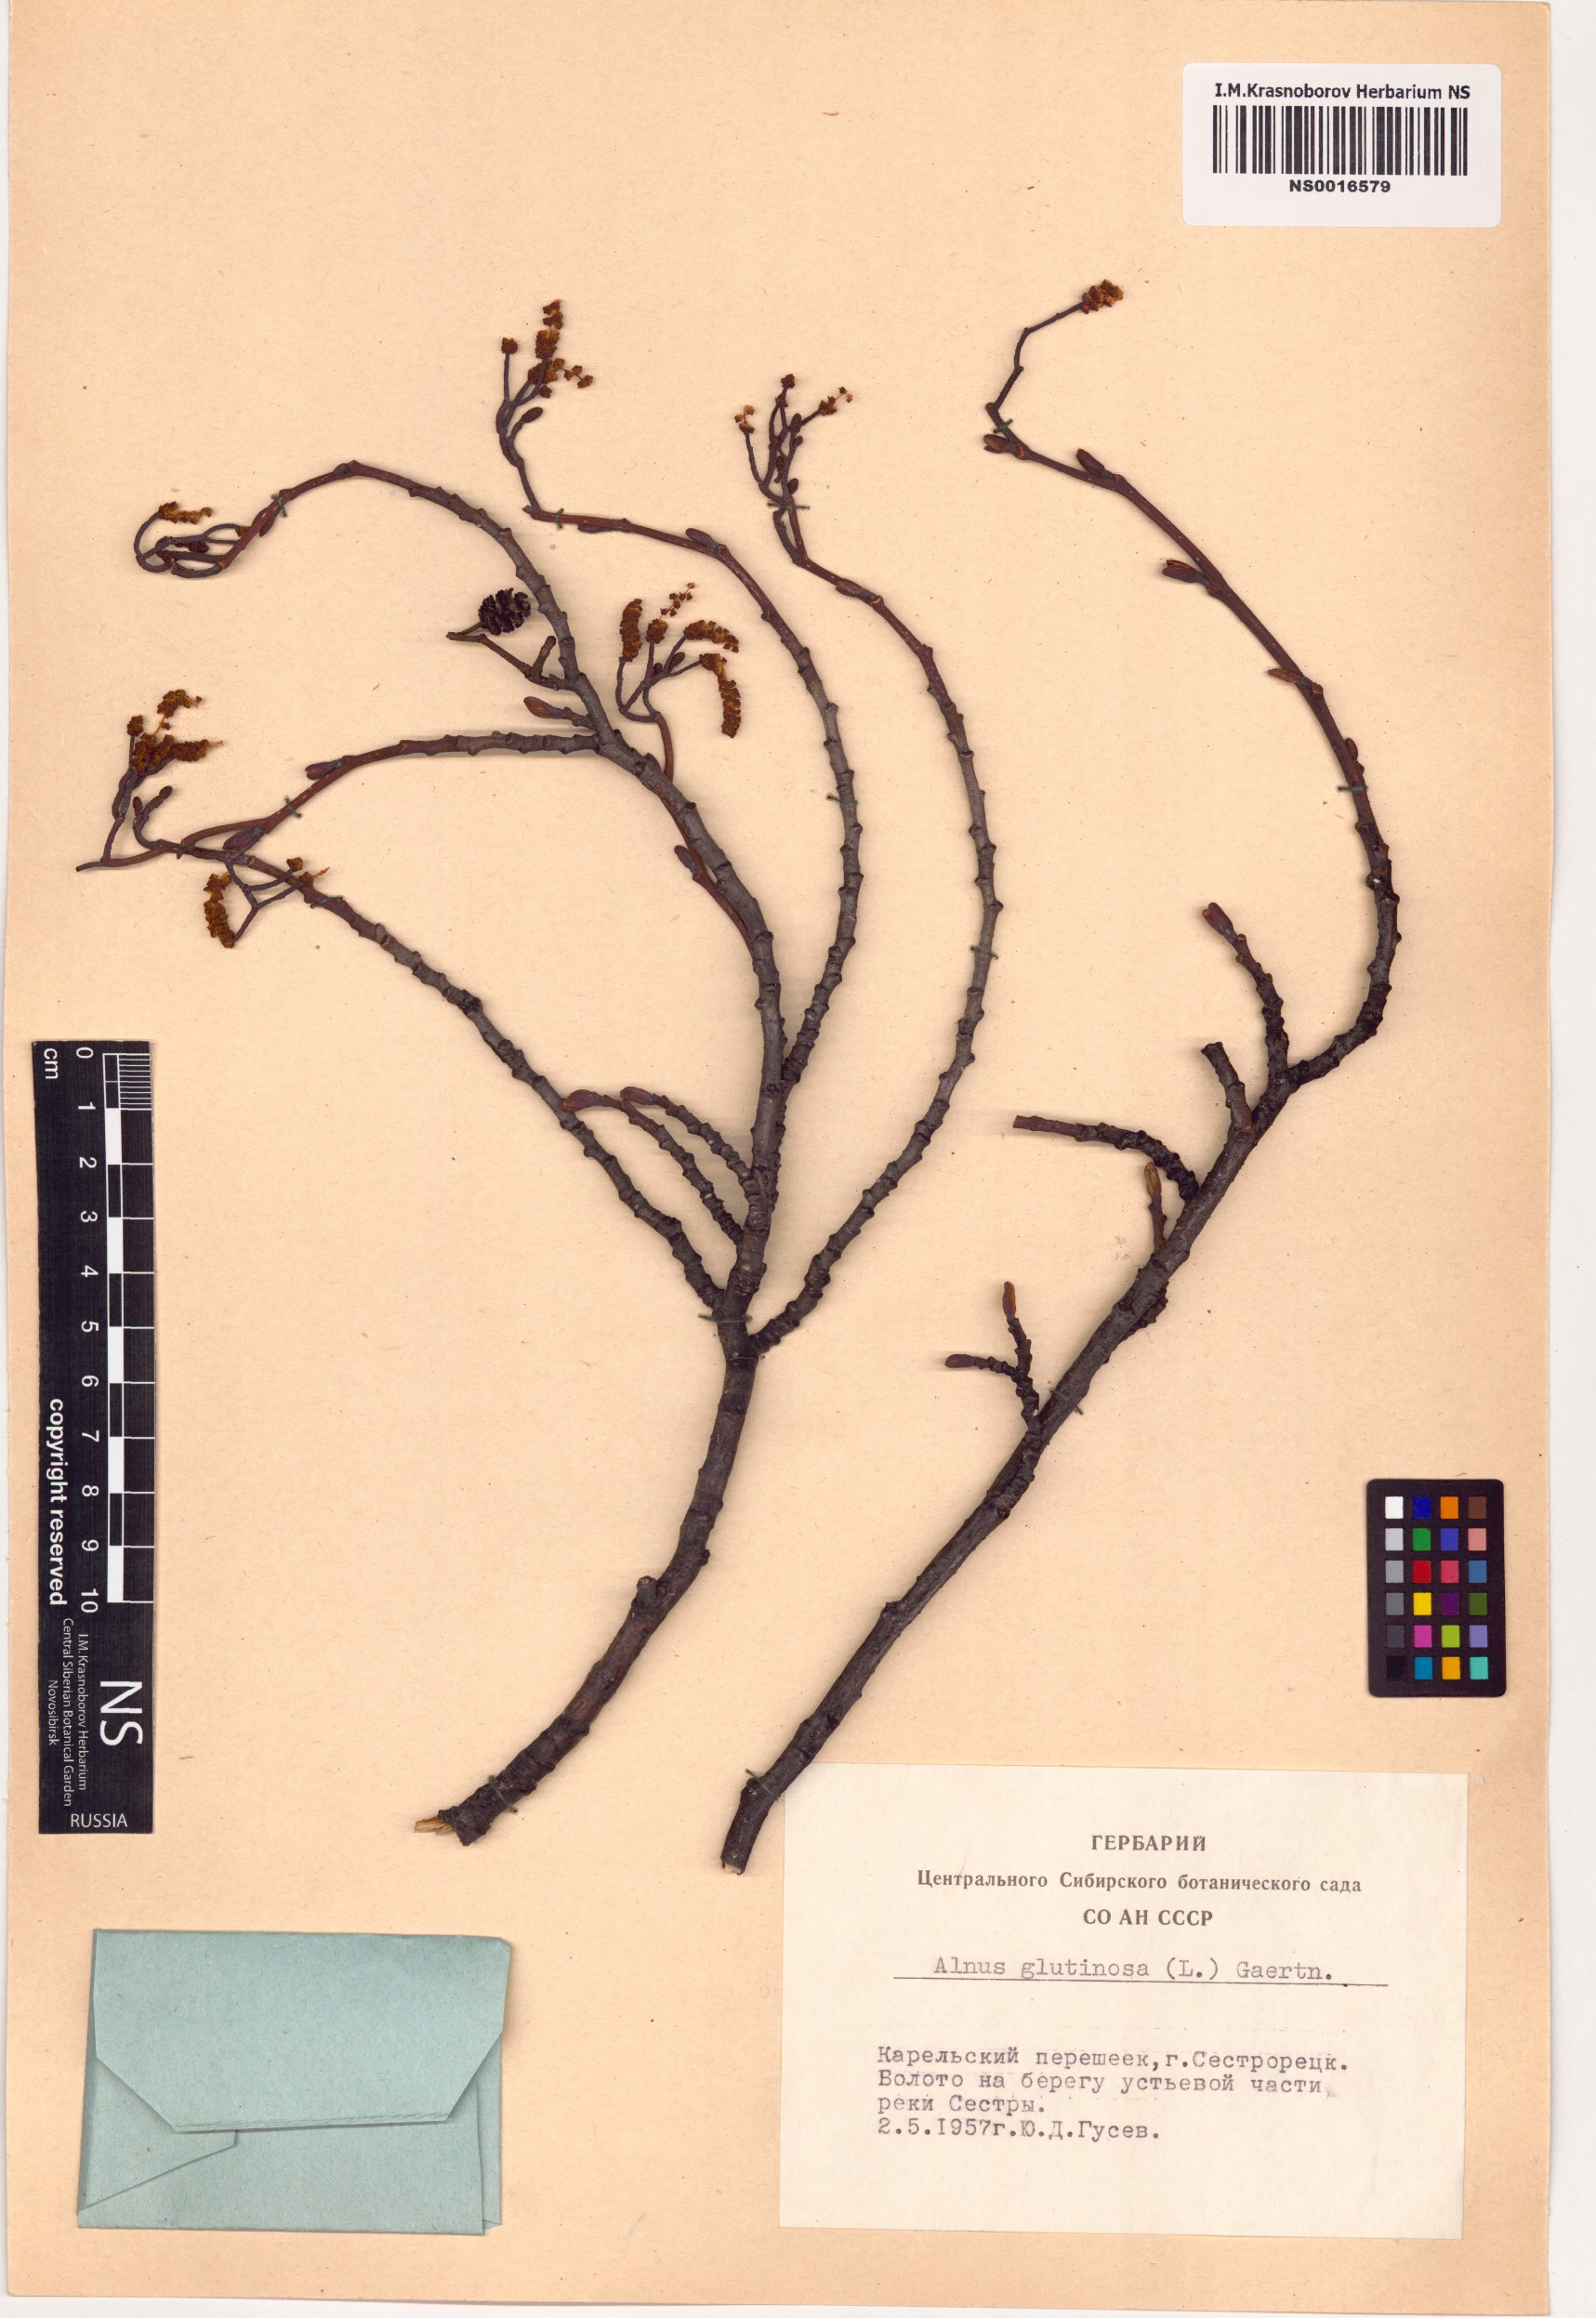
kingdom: Plantae
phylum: Tracheophyta
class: Magnoliopsida
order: Fagales
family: Betulaceae
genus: Alnus
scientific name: Alnus glutinosa
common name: Black alder
